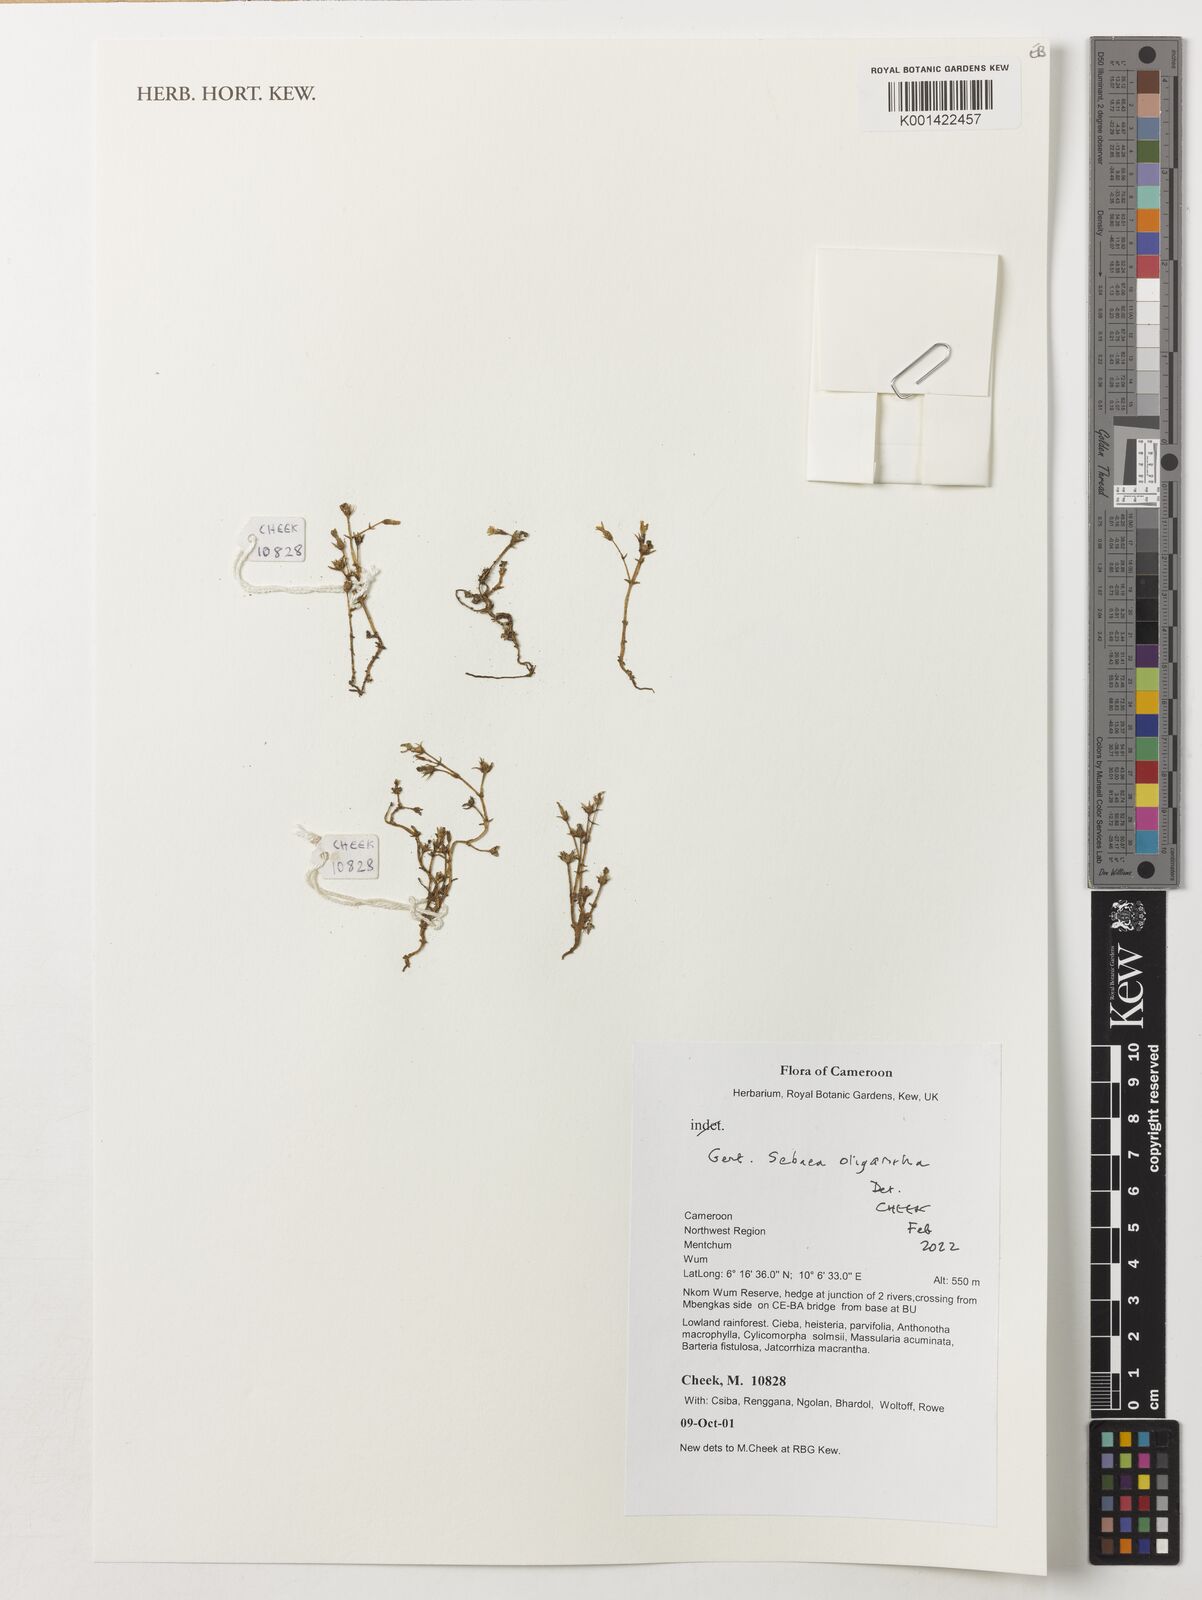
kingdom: Plantae
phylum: Tracheophyta
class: Magnoliopsida
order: Gentianales
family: Gentianaceae
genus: Exochaenium
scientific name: Exochaenium oliganthum
